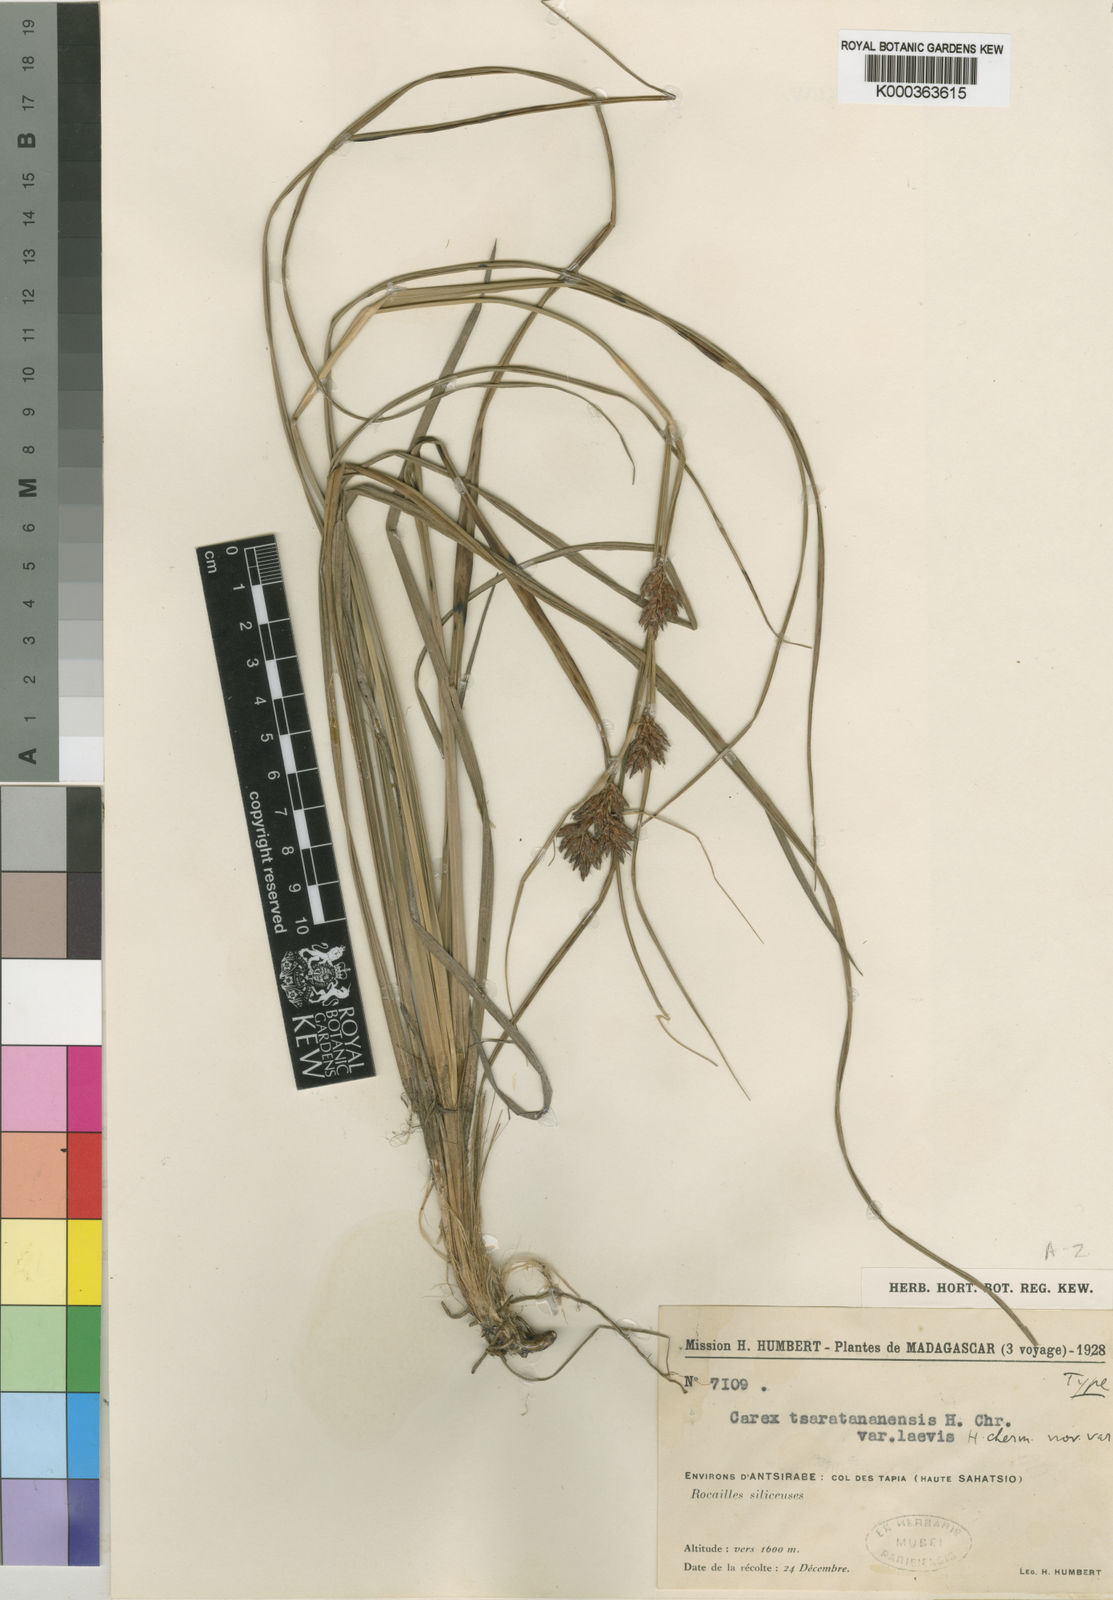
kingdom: Plantae
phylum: Tracheophyta
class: Liliopsida
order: Poales
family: Cyperaceae
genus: Carex
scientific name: Carex tsaratananensis
